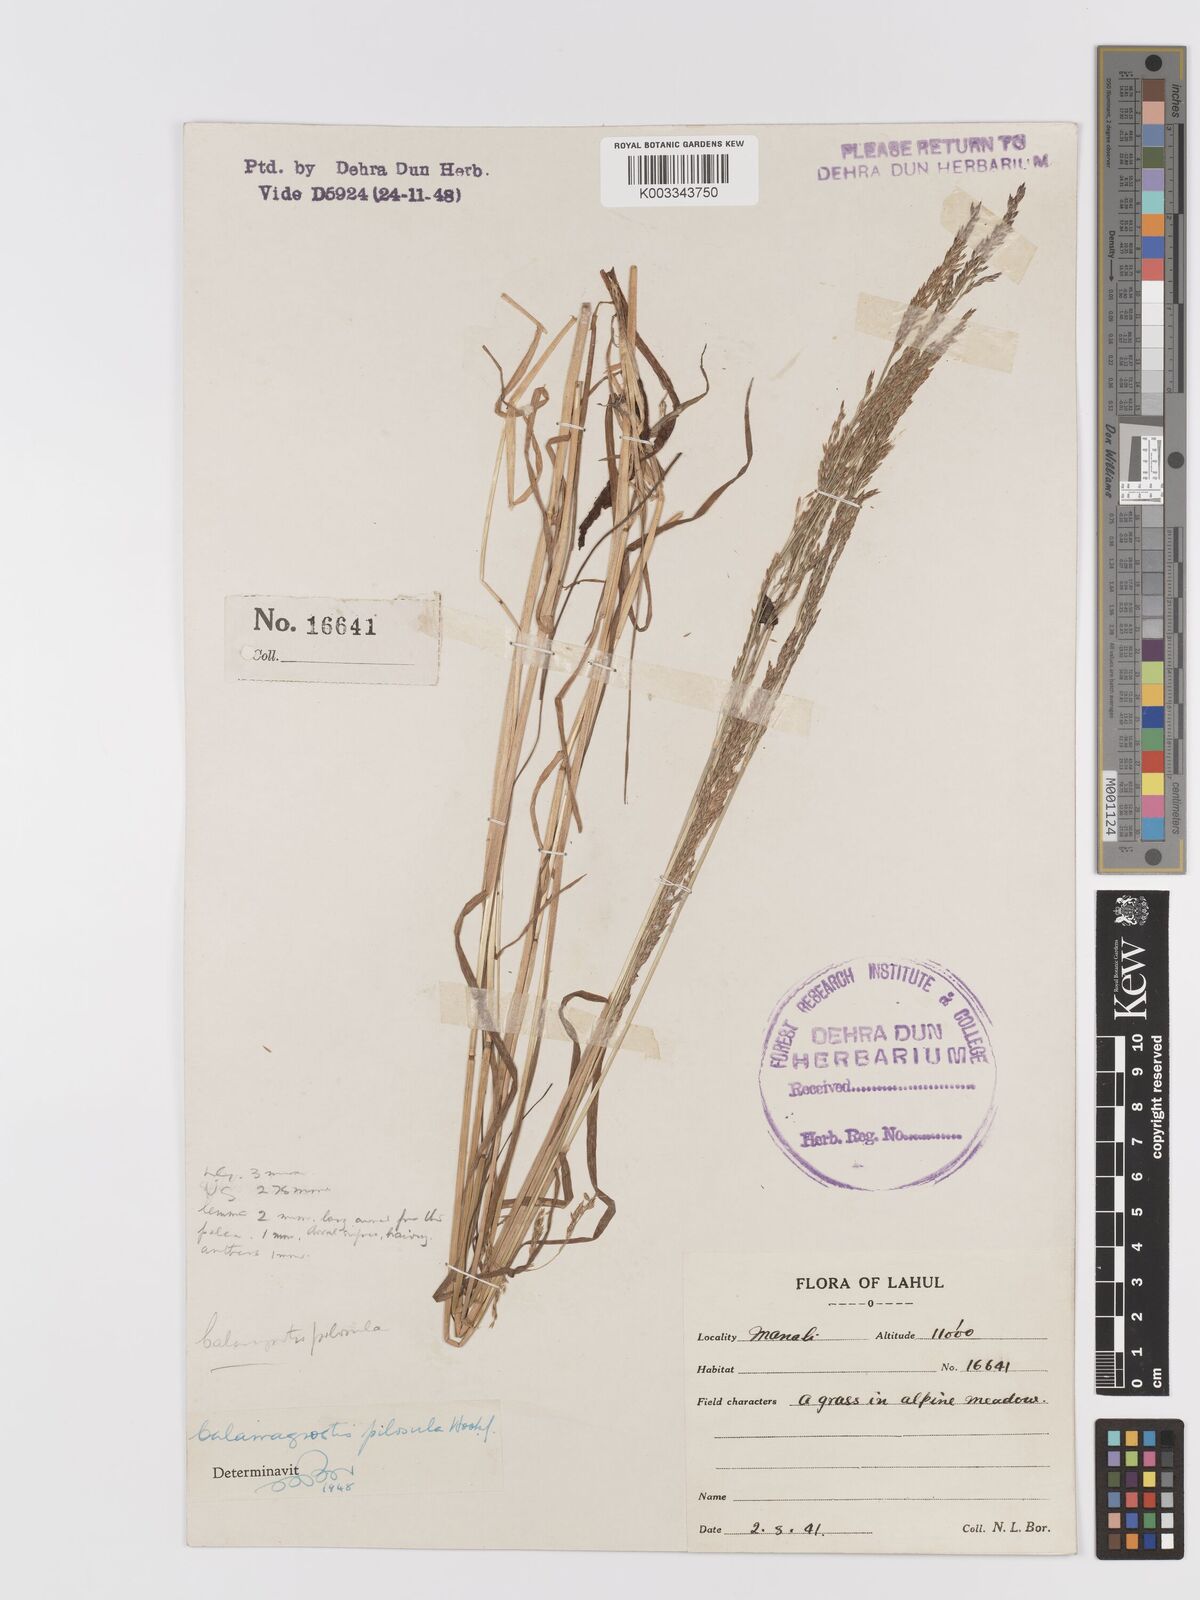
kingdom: Plantae
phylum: Tracheophyta
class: Liliopsida
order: Poales
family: Poaceae
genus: Agrostis
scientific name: Agrostis pilosula
